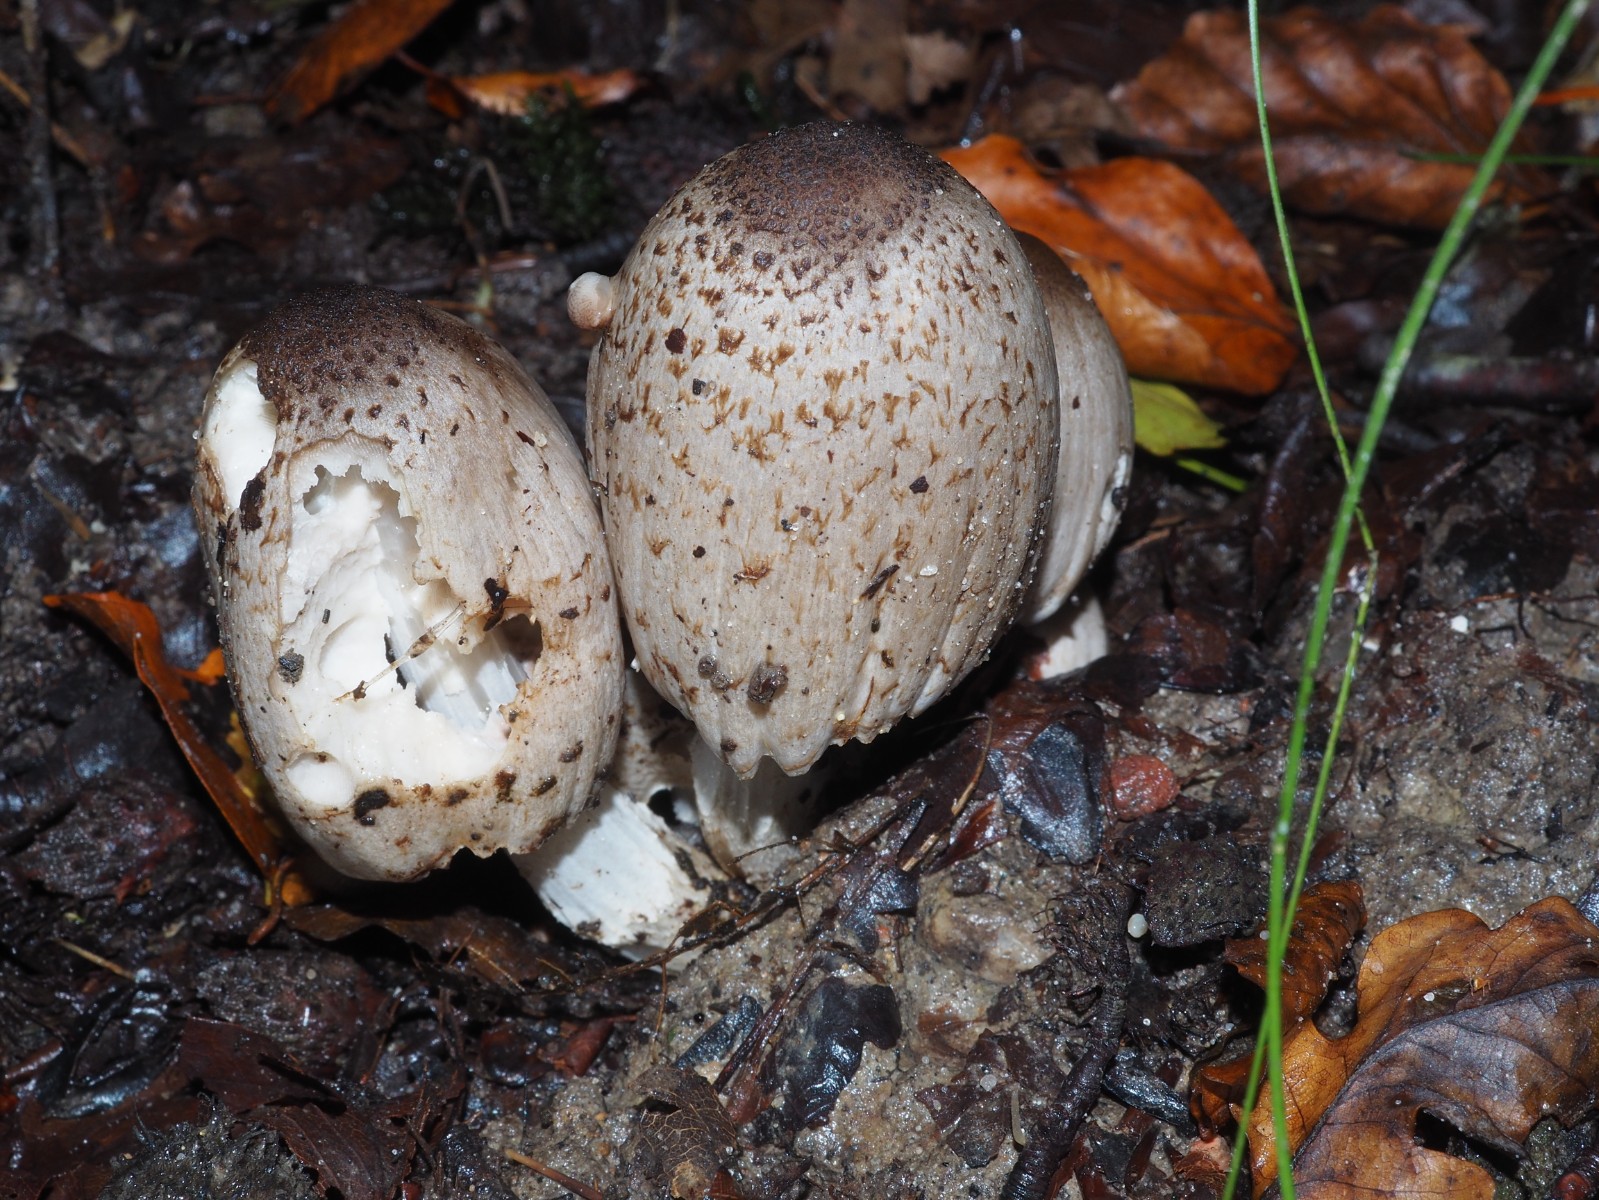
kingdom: Fungi
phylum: Basidiomycota
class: Agaricomycetes
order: Agaricales
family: Psathyrellaceae
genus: Coprinopsis
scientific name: Coprinopsis romagnesiana
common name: brunskællet blækhat
